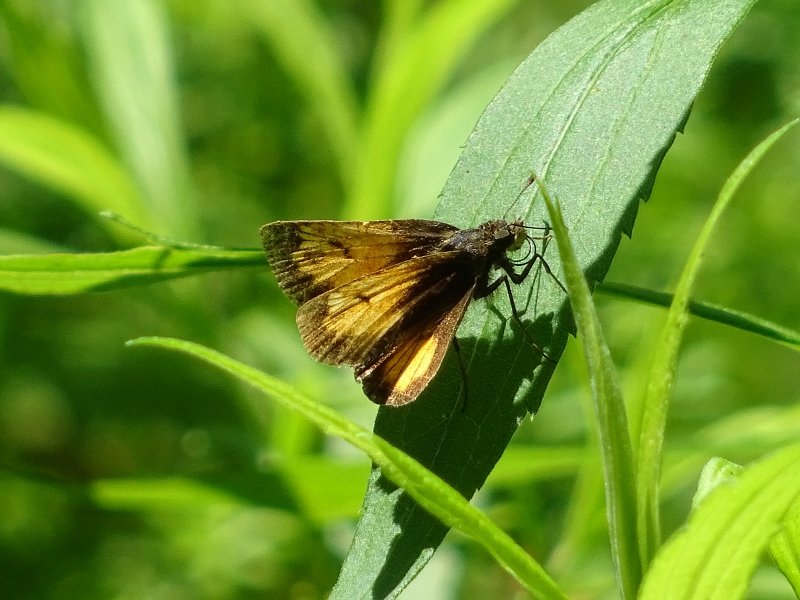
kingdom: Animalia
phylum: Arthropoda
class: Insecta
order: Lepidoptera
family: Hesperiidae
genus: Lon
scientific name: Lon hobomok
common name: Hobomok Skipper
